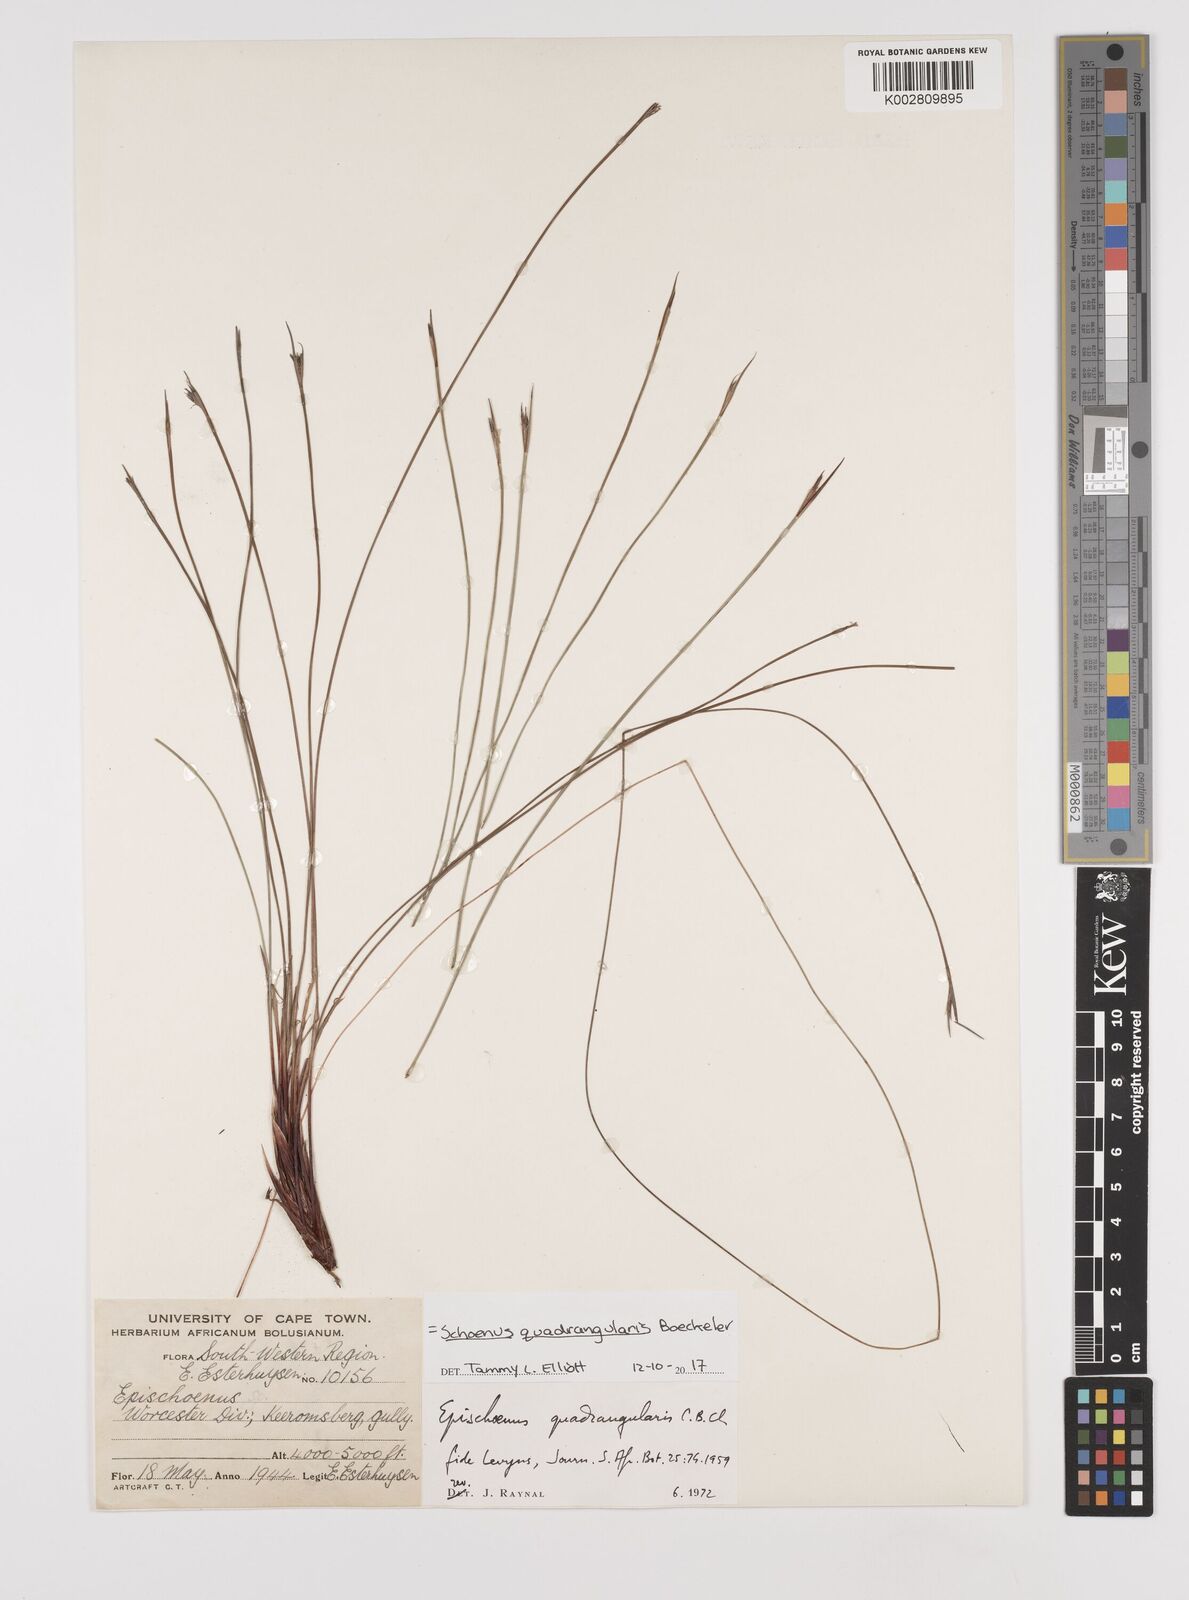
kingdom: Plantae
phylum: Tracheophyta
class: Liliopsida
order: Poales
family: Cyperaceae
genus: Schoenus
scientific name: Schoenus
